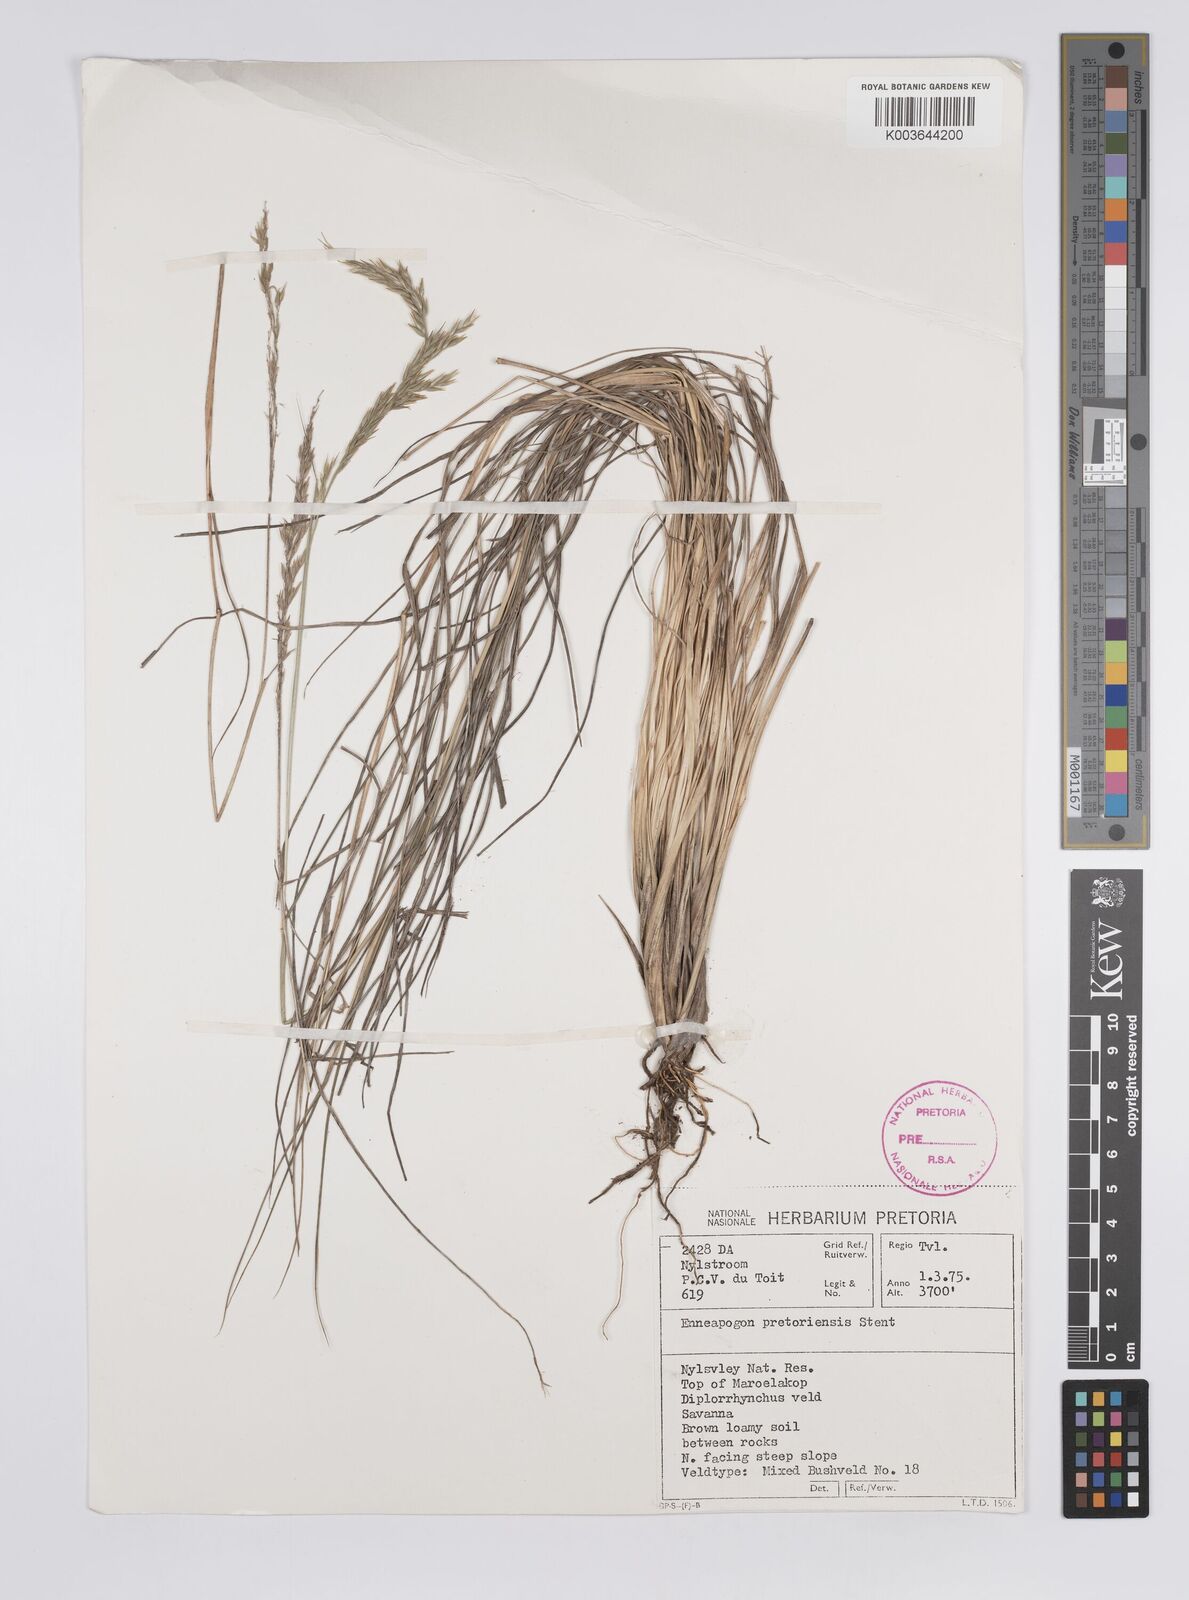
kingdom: Plantae
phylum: Tracheophyta
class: Liliopsida
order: Poales
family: Poaceae
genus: Enneapogon
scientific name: Enneapogon pretoriensis
